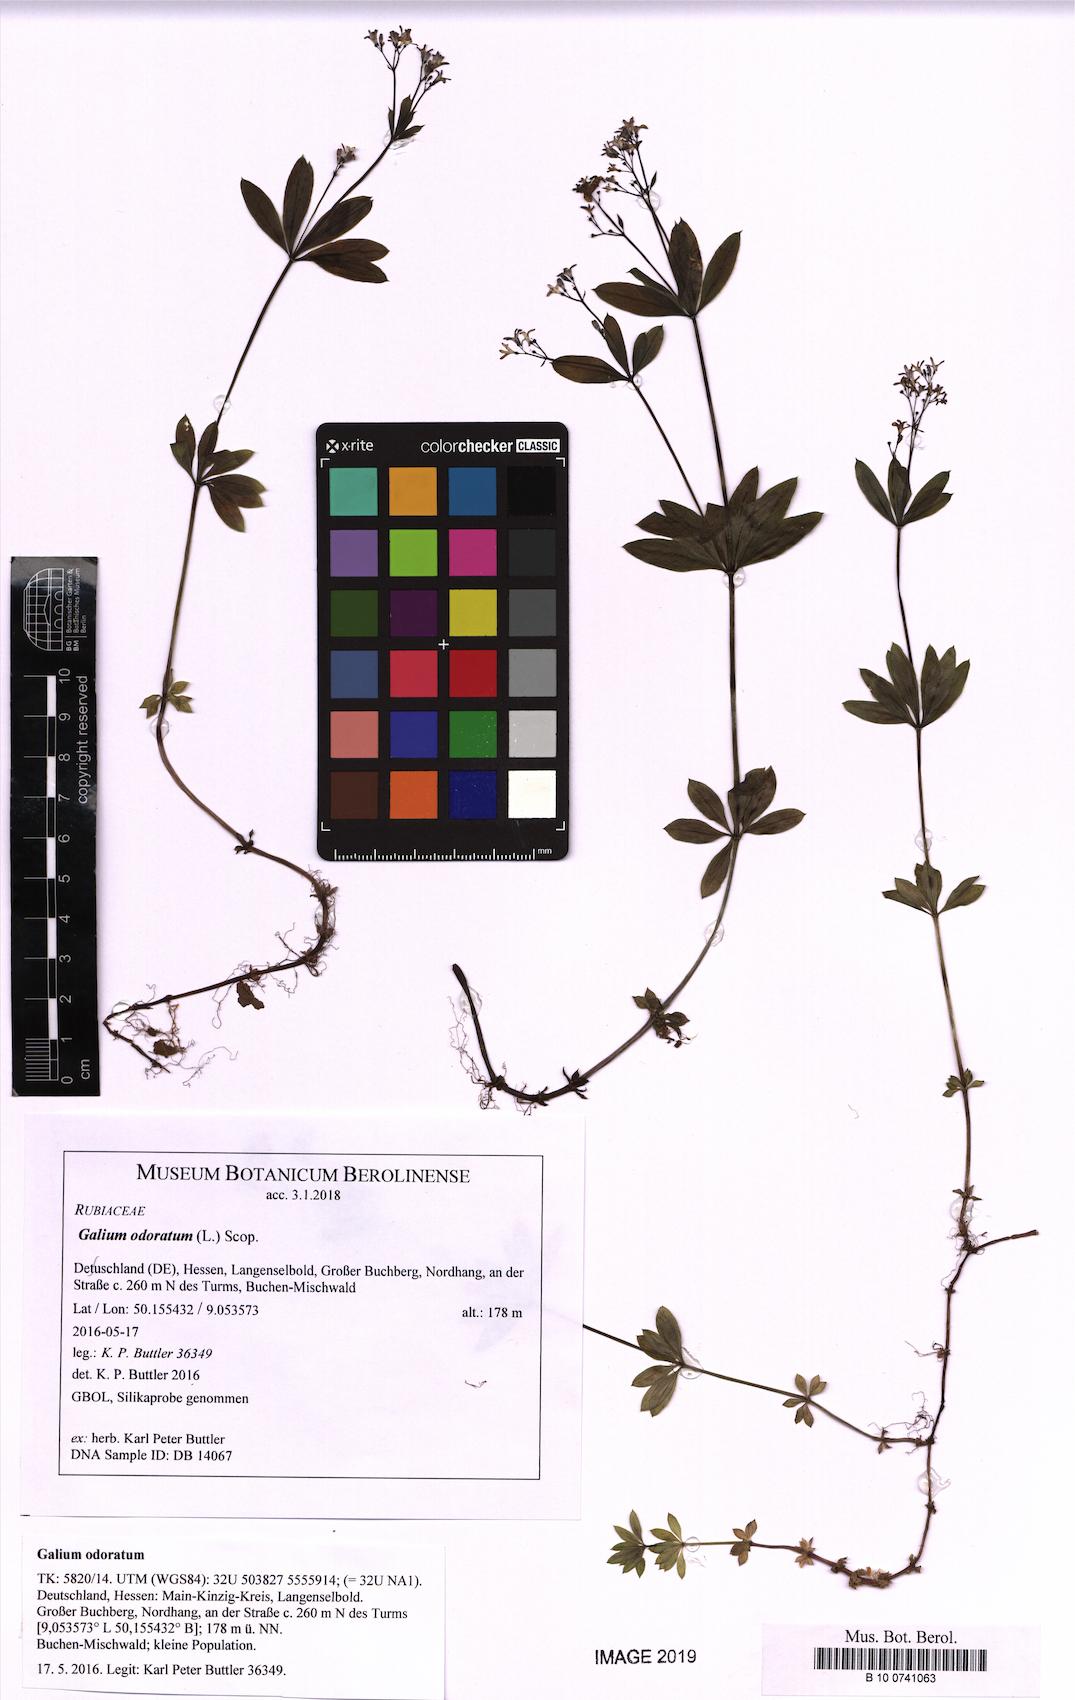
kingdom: Plantae
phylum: Tracheophyta
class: Magnoliopsida
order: Gentianales
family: Rubiaceae
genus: Galium
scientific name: Galium odoratum
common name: Sweet woodruff
